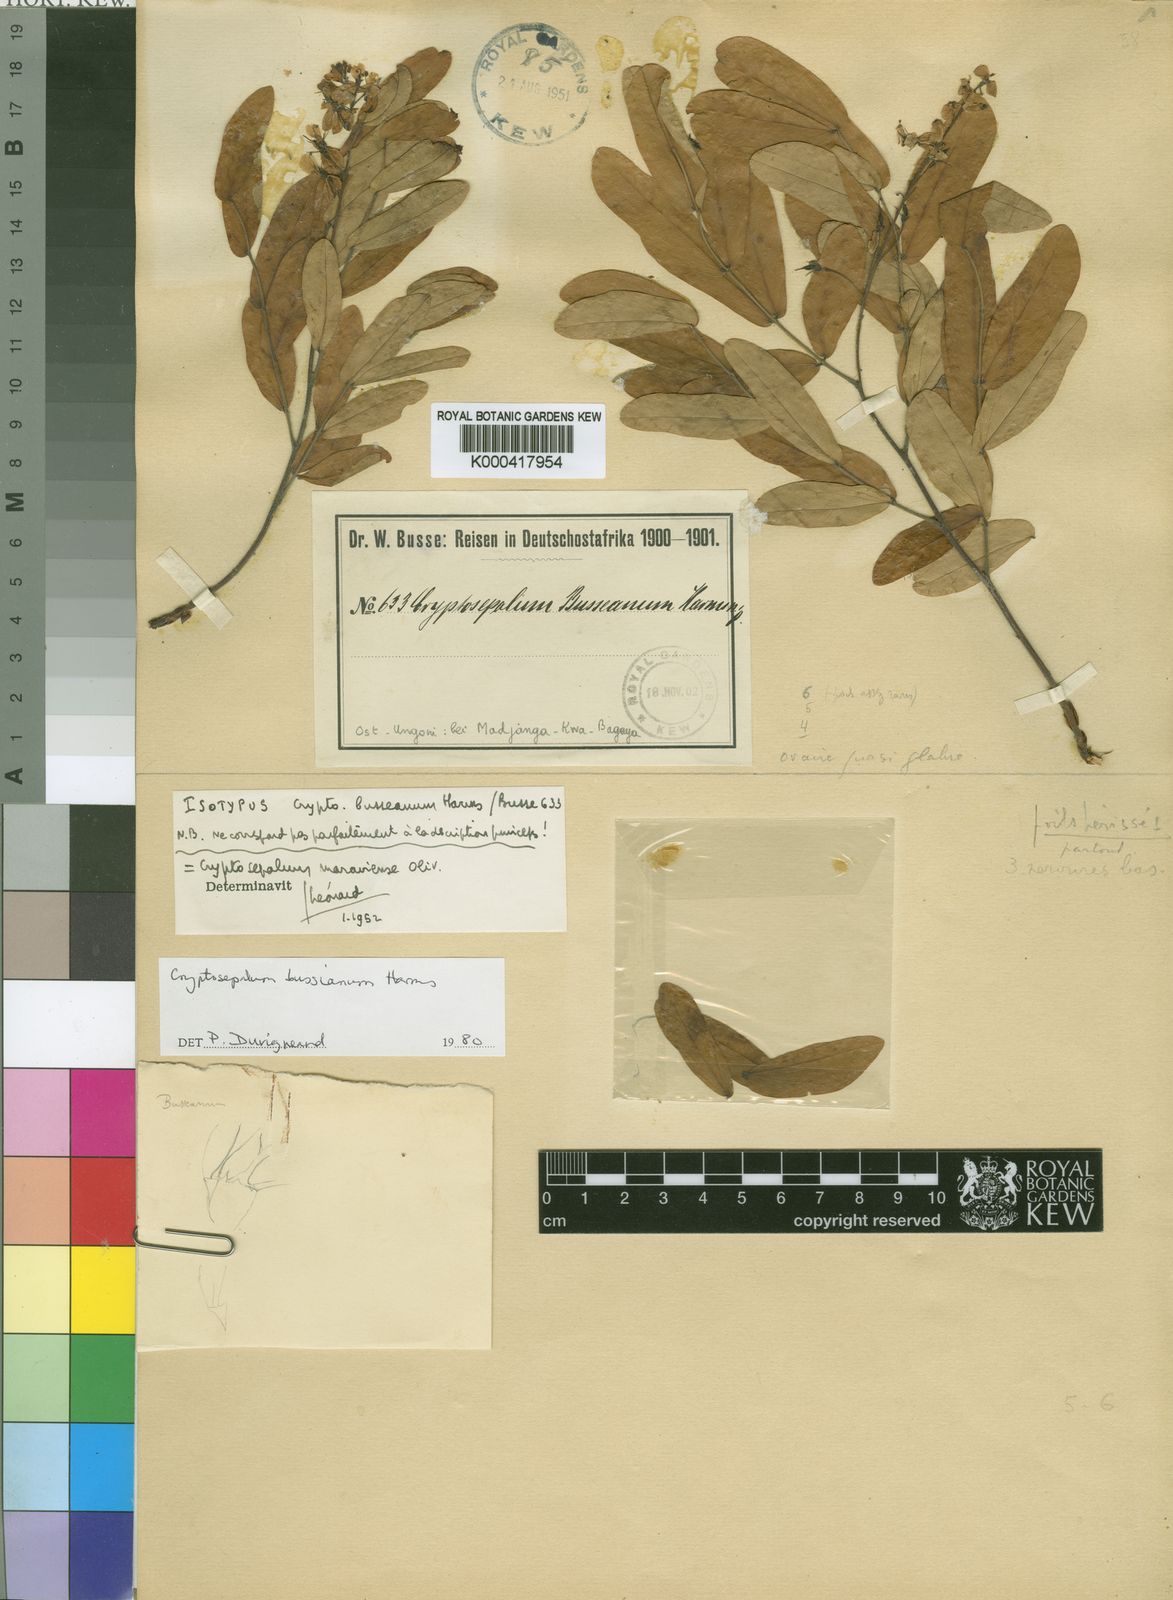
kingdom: Plantae
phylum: Tracheophyta
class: Magnoliopsida
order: Fabales
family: Fabaceae
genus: Cryptosepalum
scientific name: Cryptosepalum maraviense
